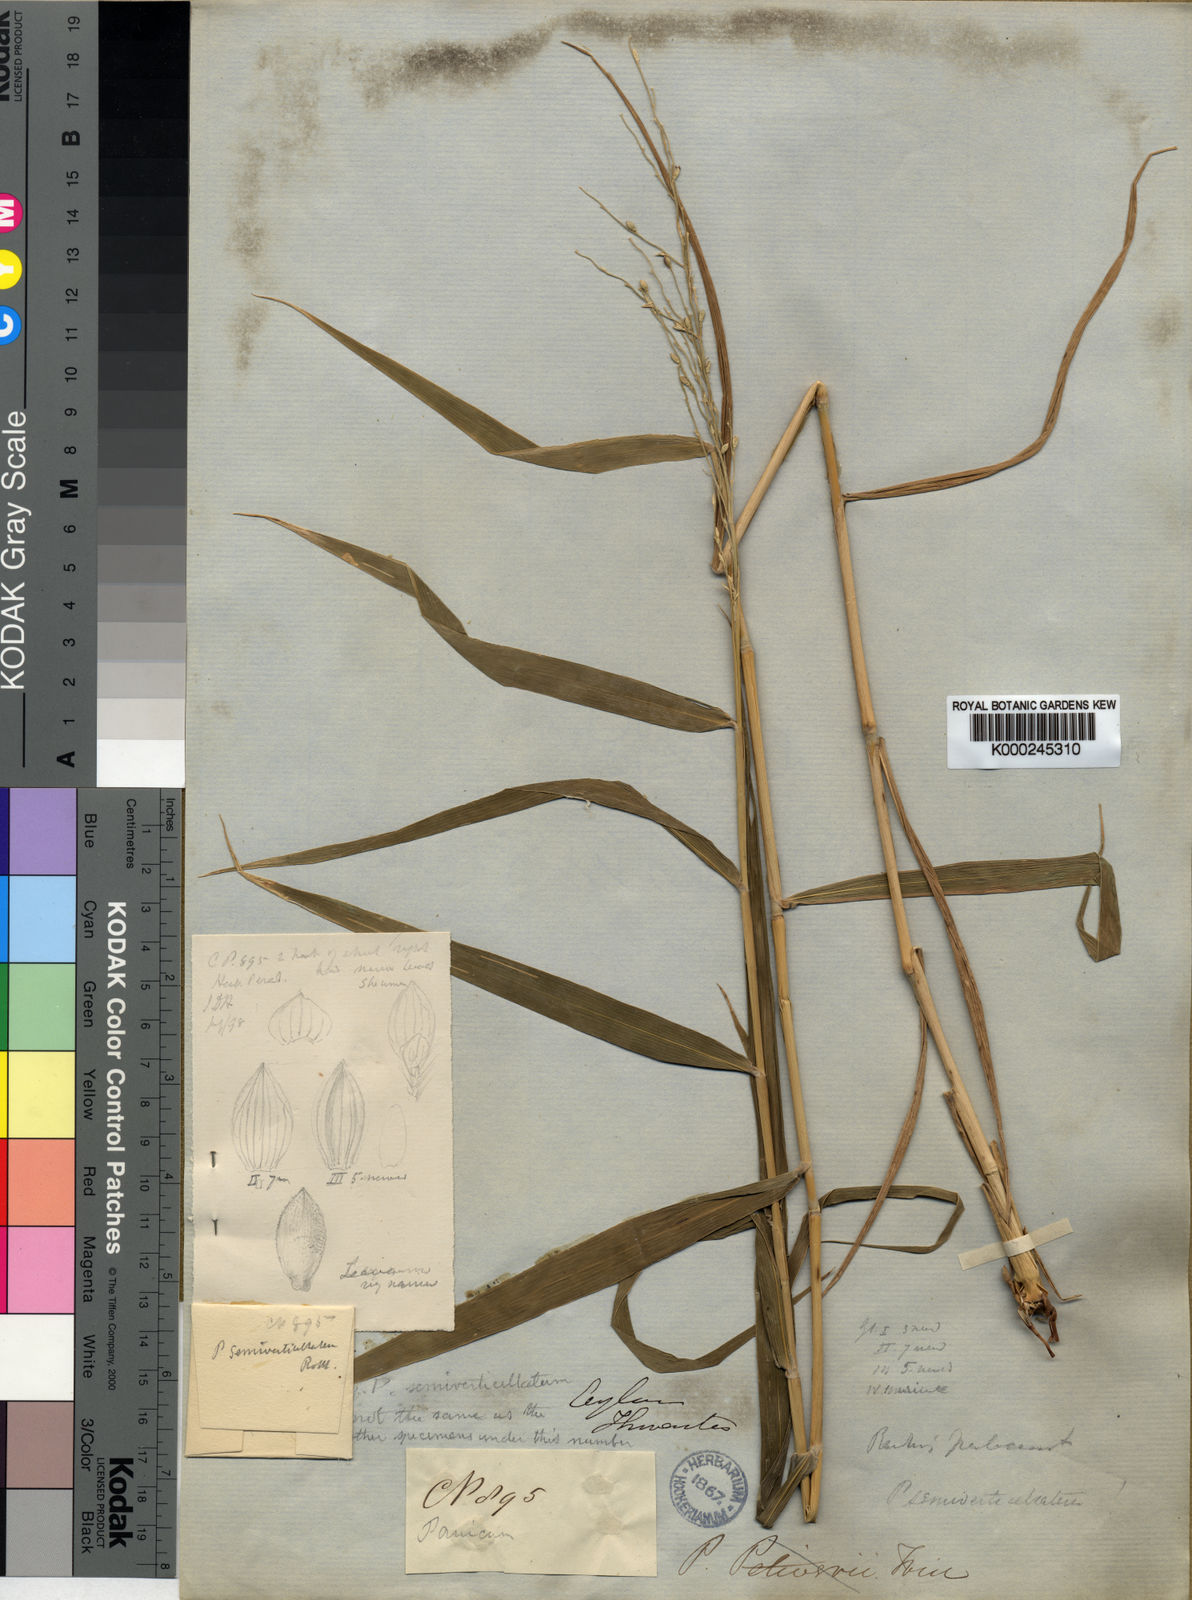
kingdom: Plantae
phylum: Tracheophyta
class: Liliopsida
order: Poales
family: Poaceae
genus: Urochloa
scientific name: Urochloa Brachiaria semiverticillata
